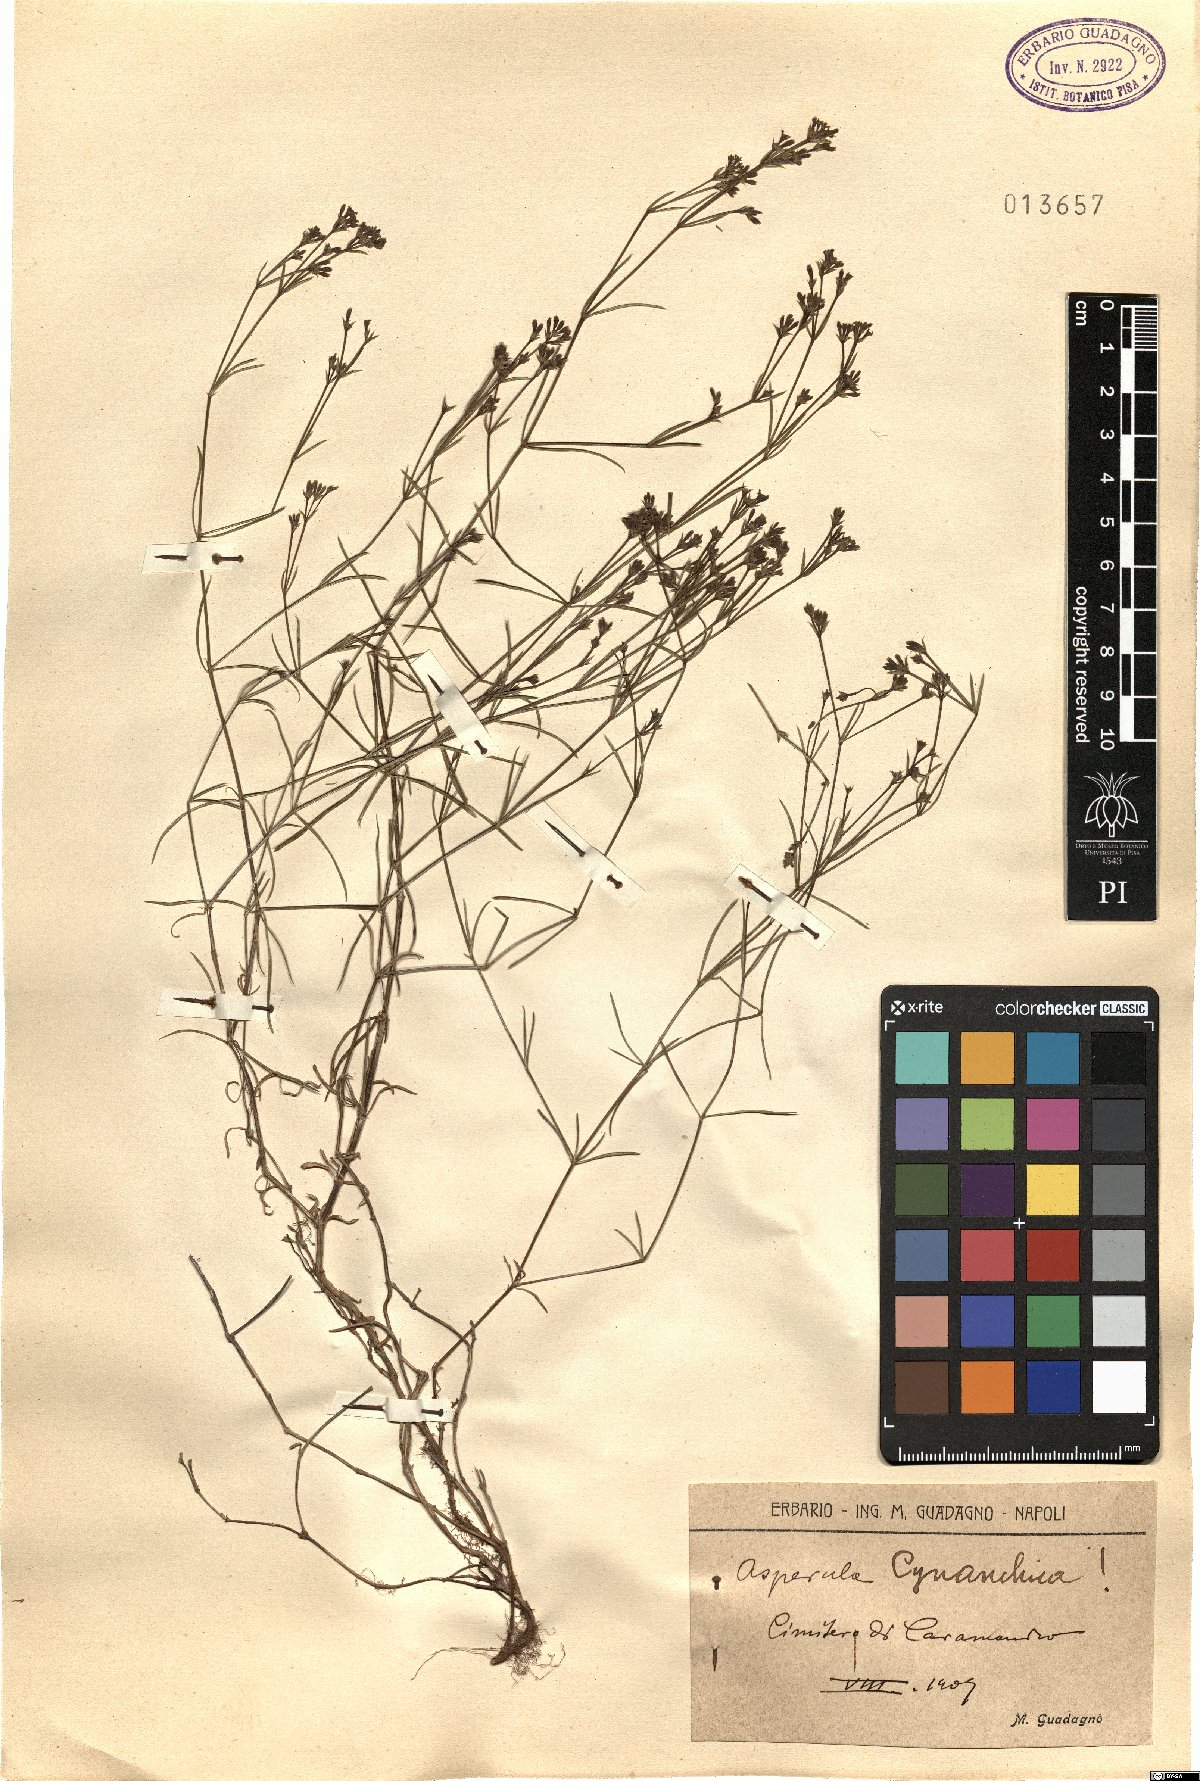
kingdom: Plantae
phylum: Tracheophyta
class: Magnoliopsida
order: Gentianales
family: Rubiaceae
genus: Cynanchica
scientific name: Cynanchica pyrenaica
